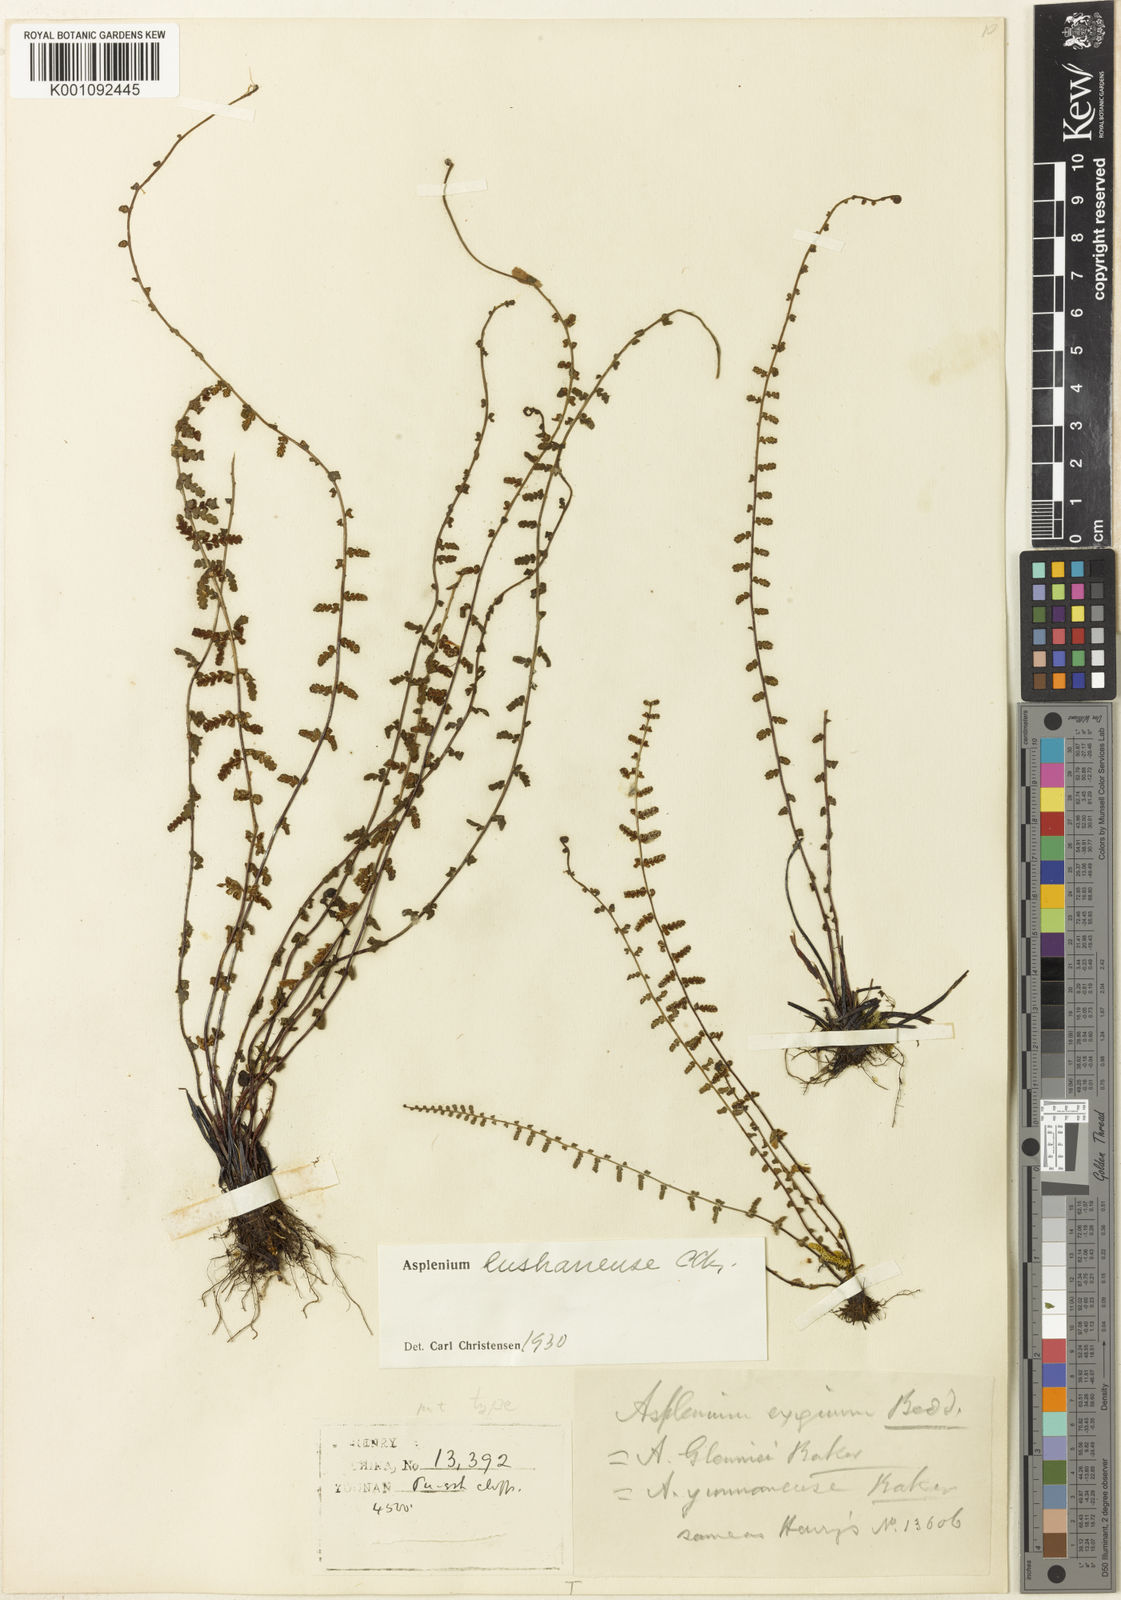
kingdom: Plantae
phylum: Tracheophyta
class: Polypodiopsida
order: Polypodiales
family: Aspleniaceae
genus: Asplenium
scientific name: Asplenium exiguum
